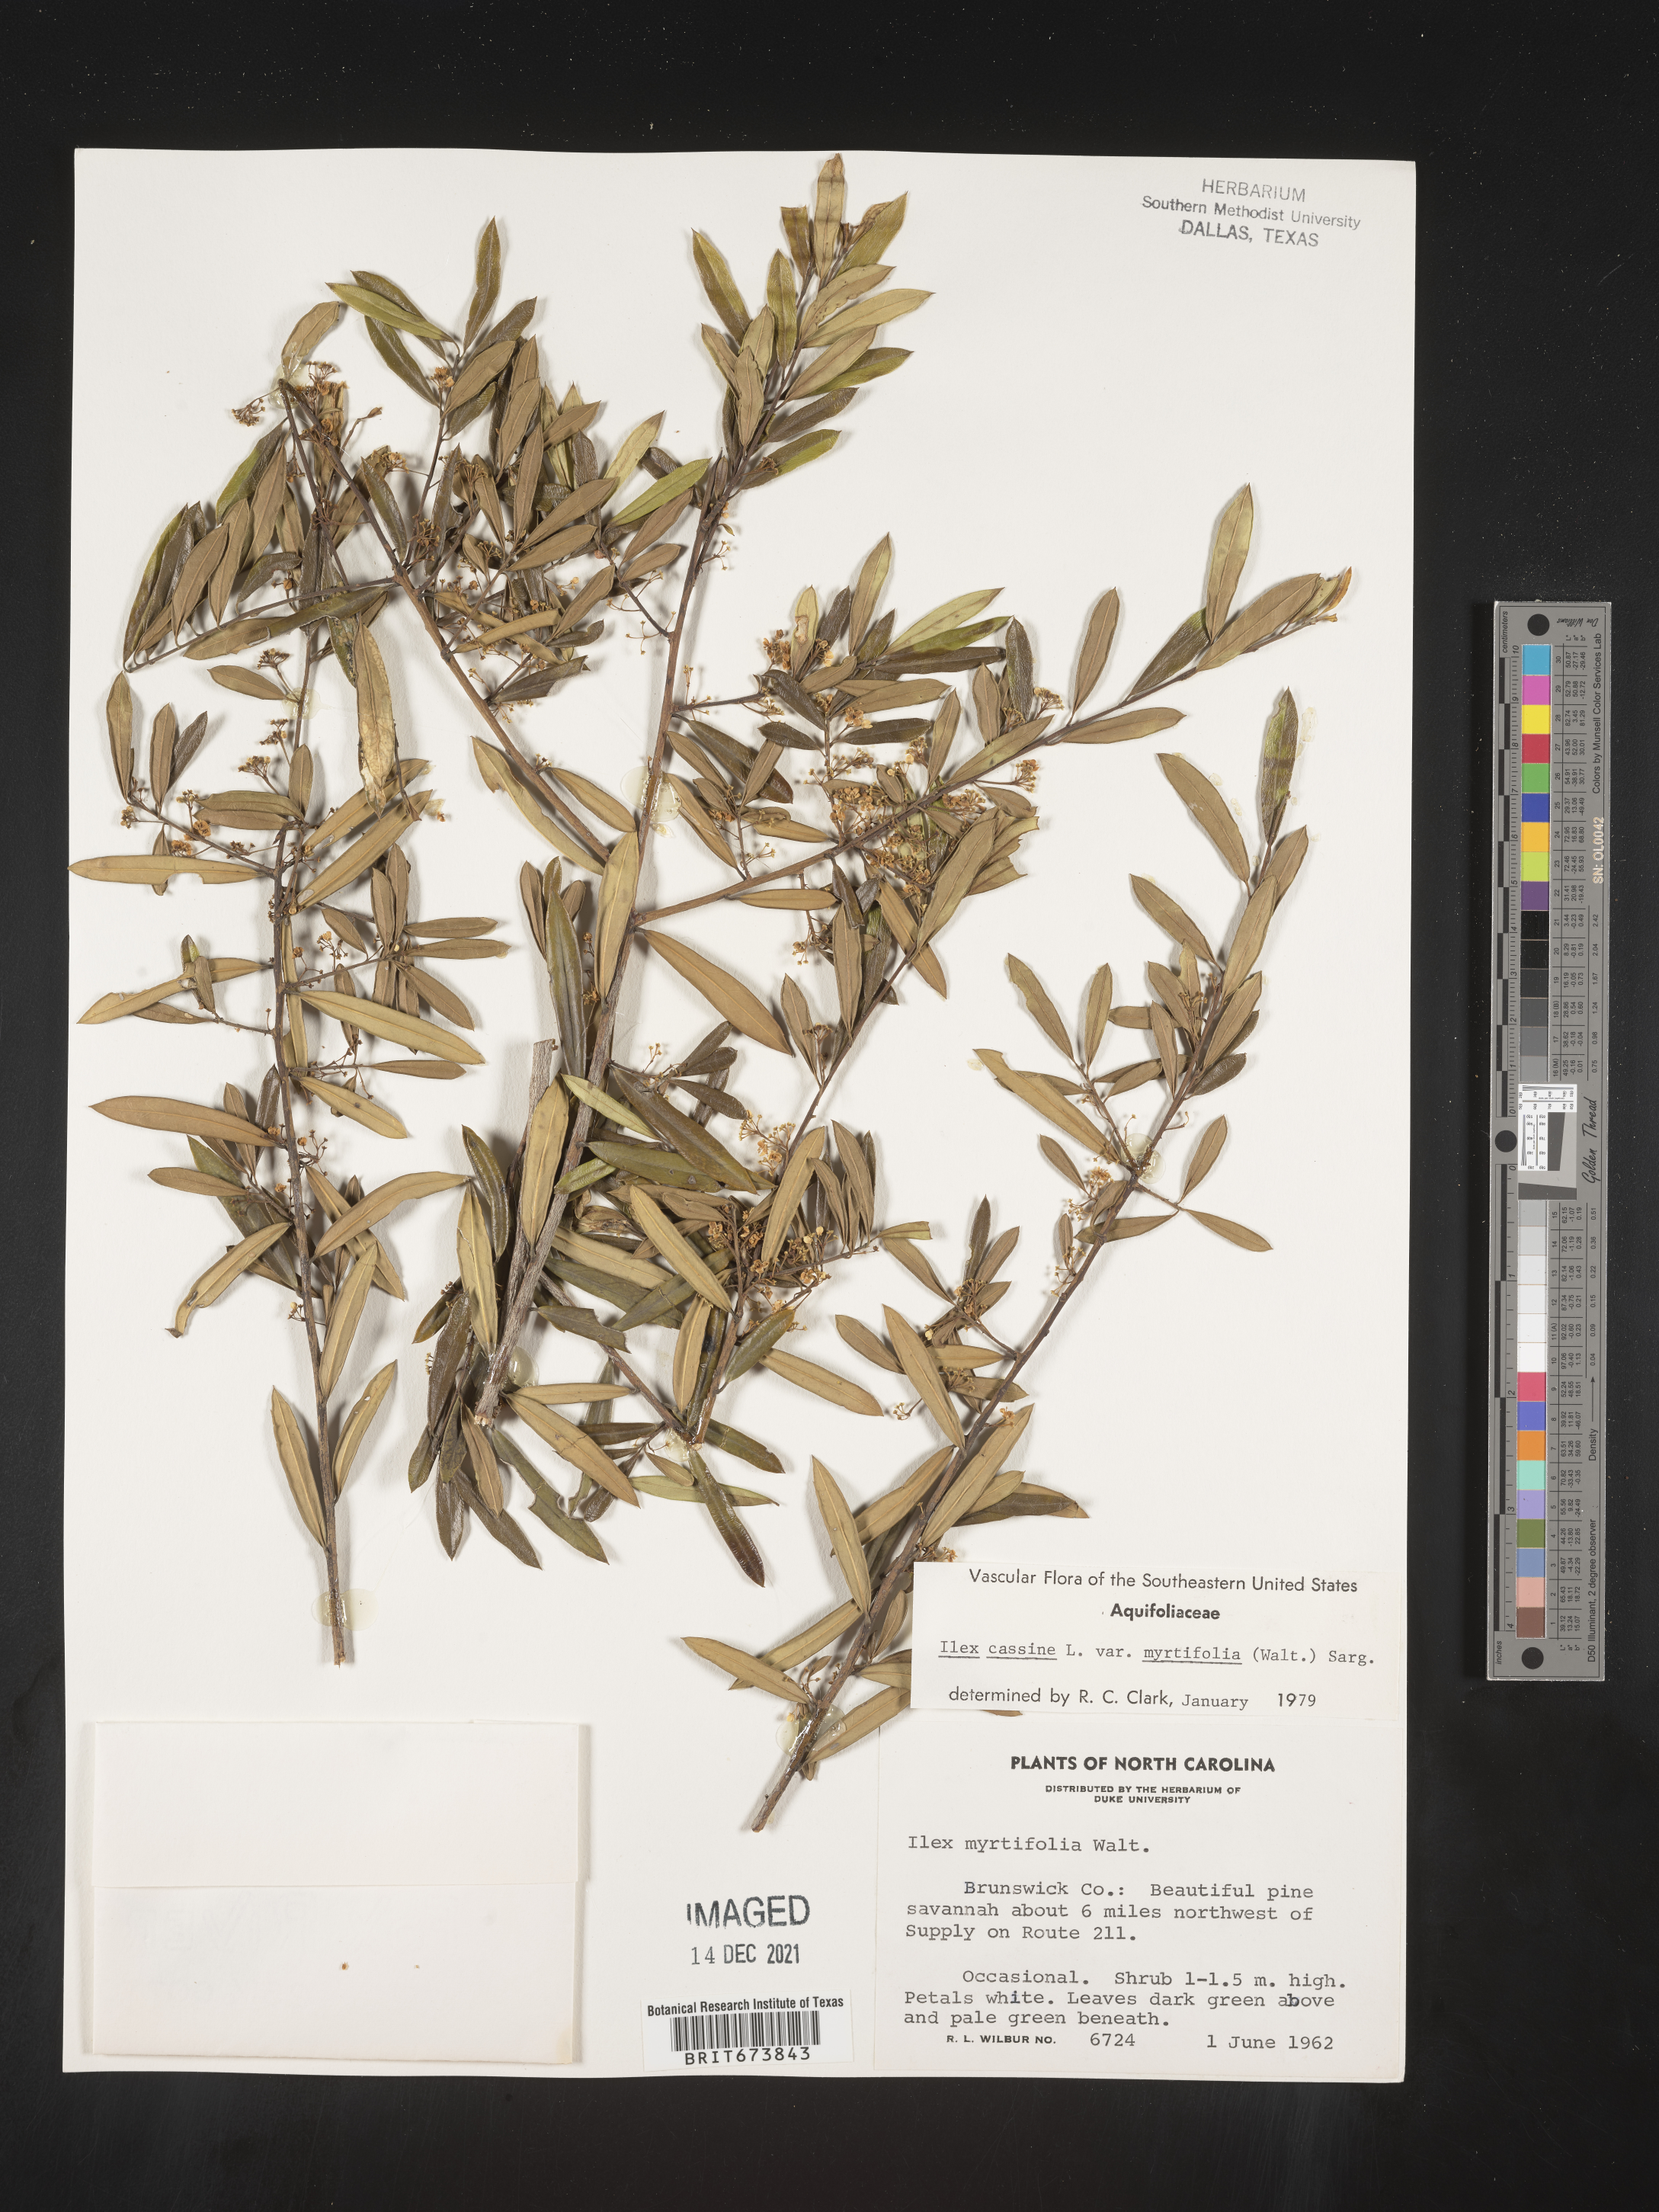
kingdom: Plantae
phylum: Tracheophyta
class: Magnoliopsida
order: Aquifoliales
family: Aquifoliaceae
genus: Ilex
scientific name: Ilex myrtifolia
